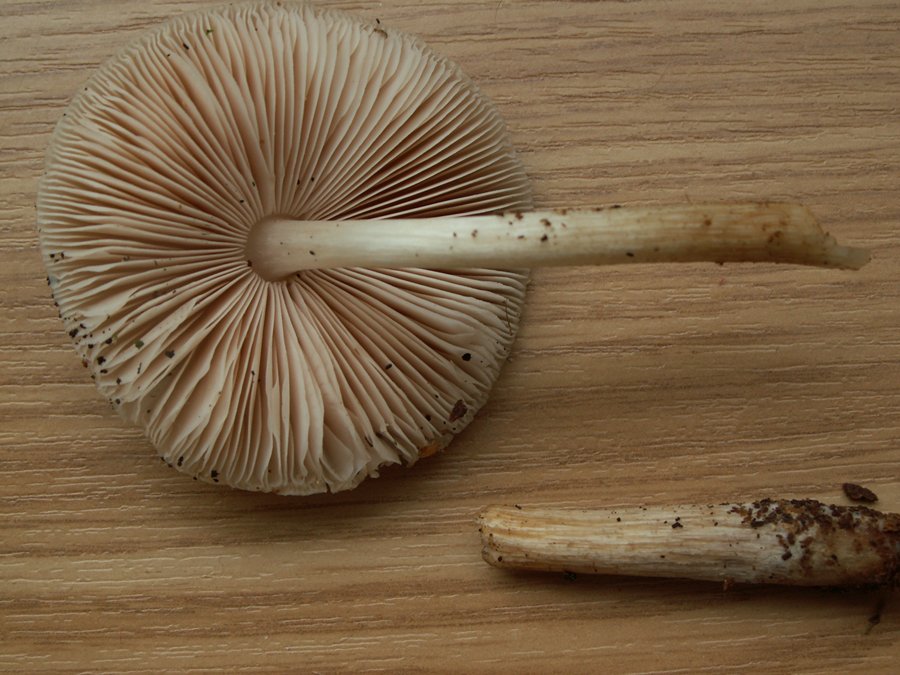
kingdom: Fungi
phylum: Basidiomycota
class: Agaricomycetes
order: Agaricales
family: Pluteaceae
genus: Pluteus
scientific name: Pluteus
